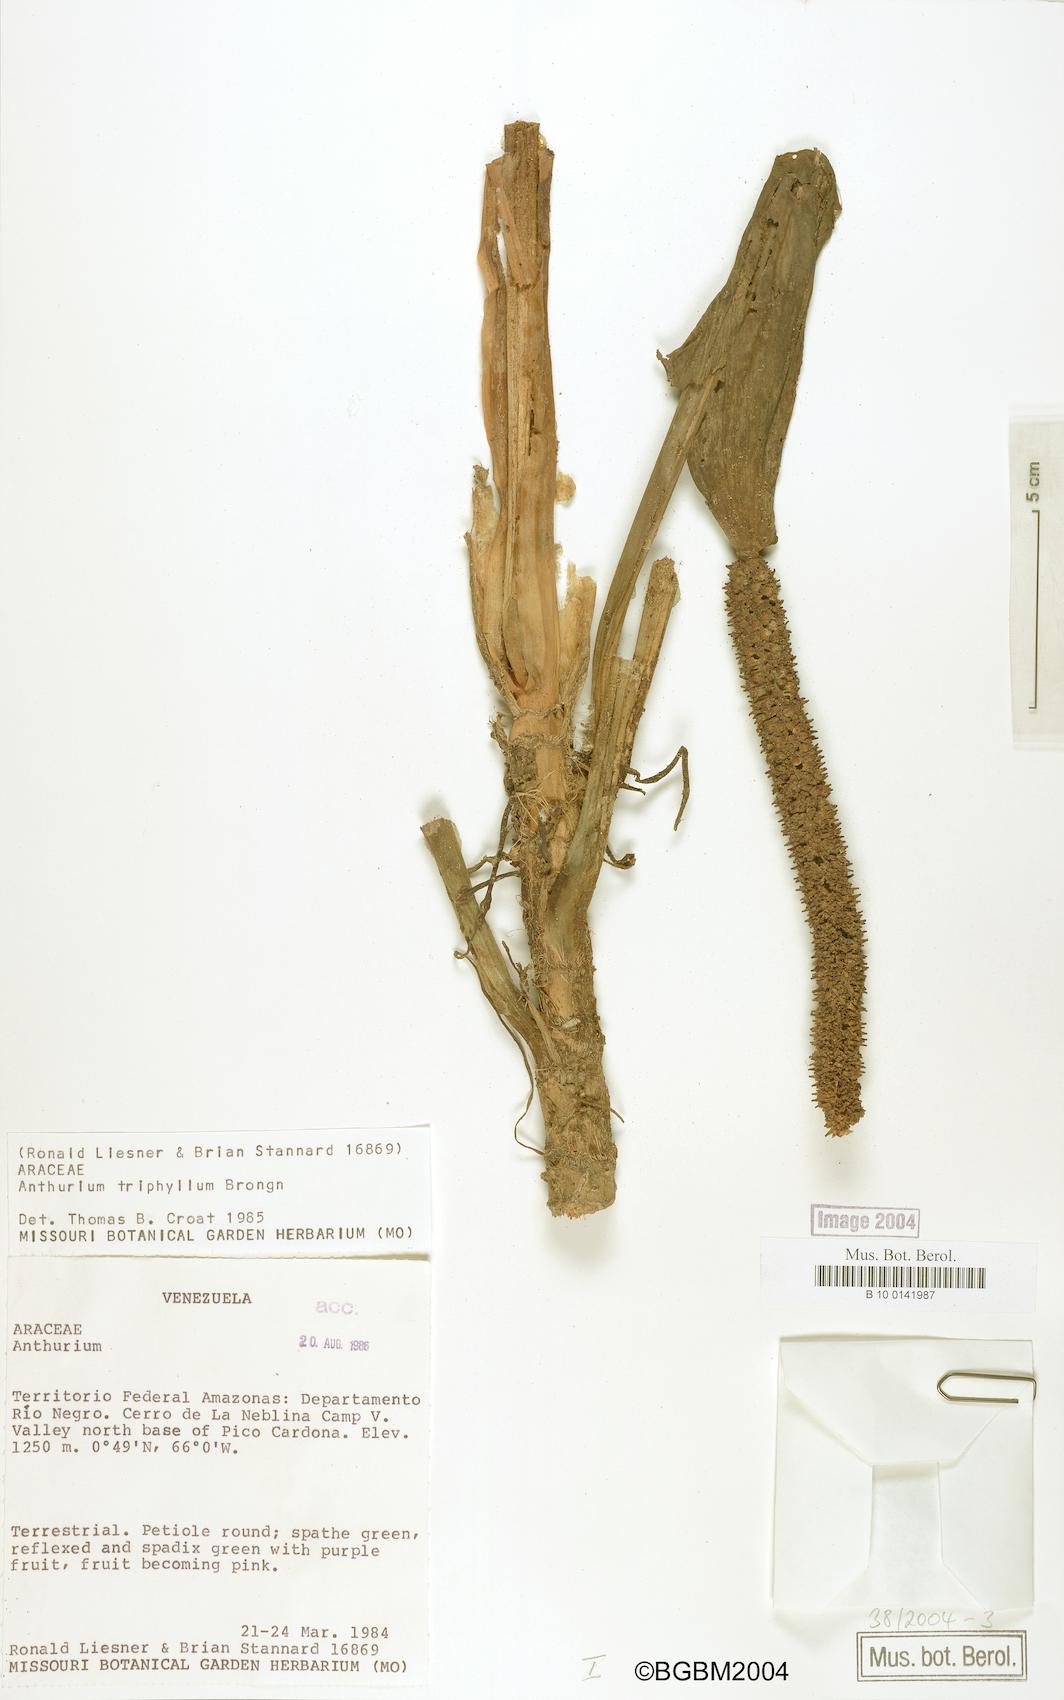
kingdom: Plantae
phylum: Tracheophyta
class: Liliopsida
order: Alismatales
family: Araceae
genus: Anthurium
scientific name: Anthurium triphyllum
